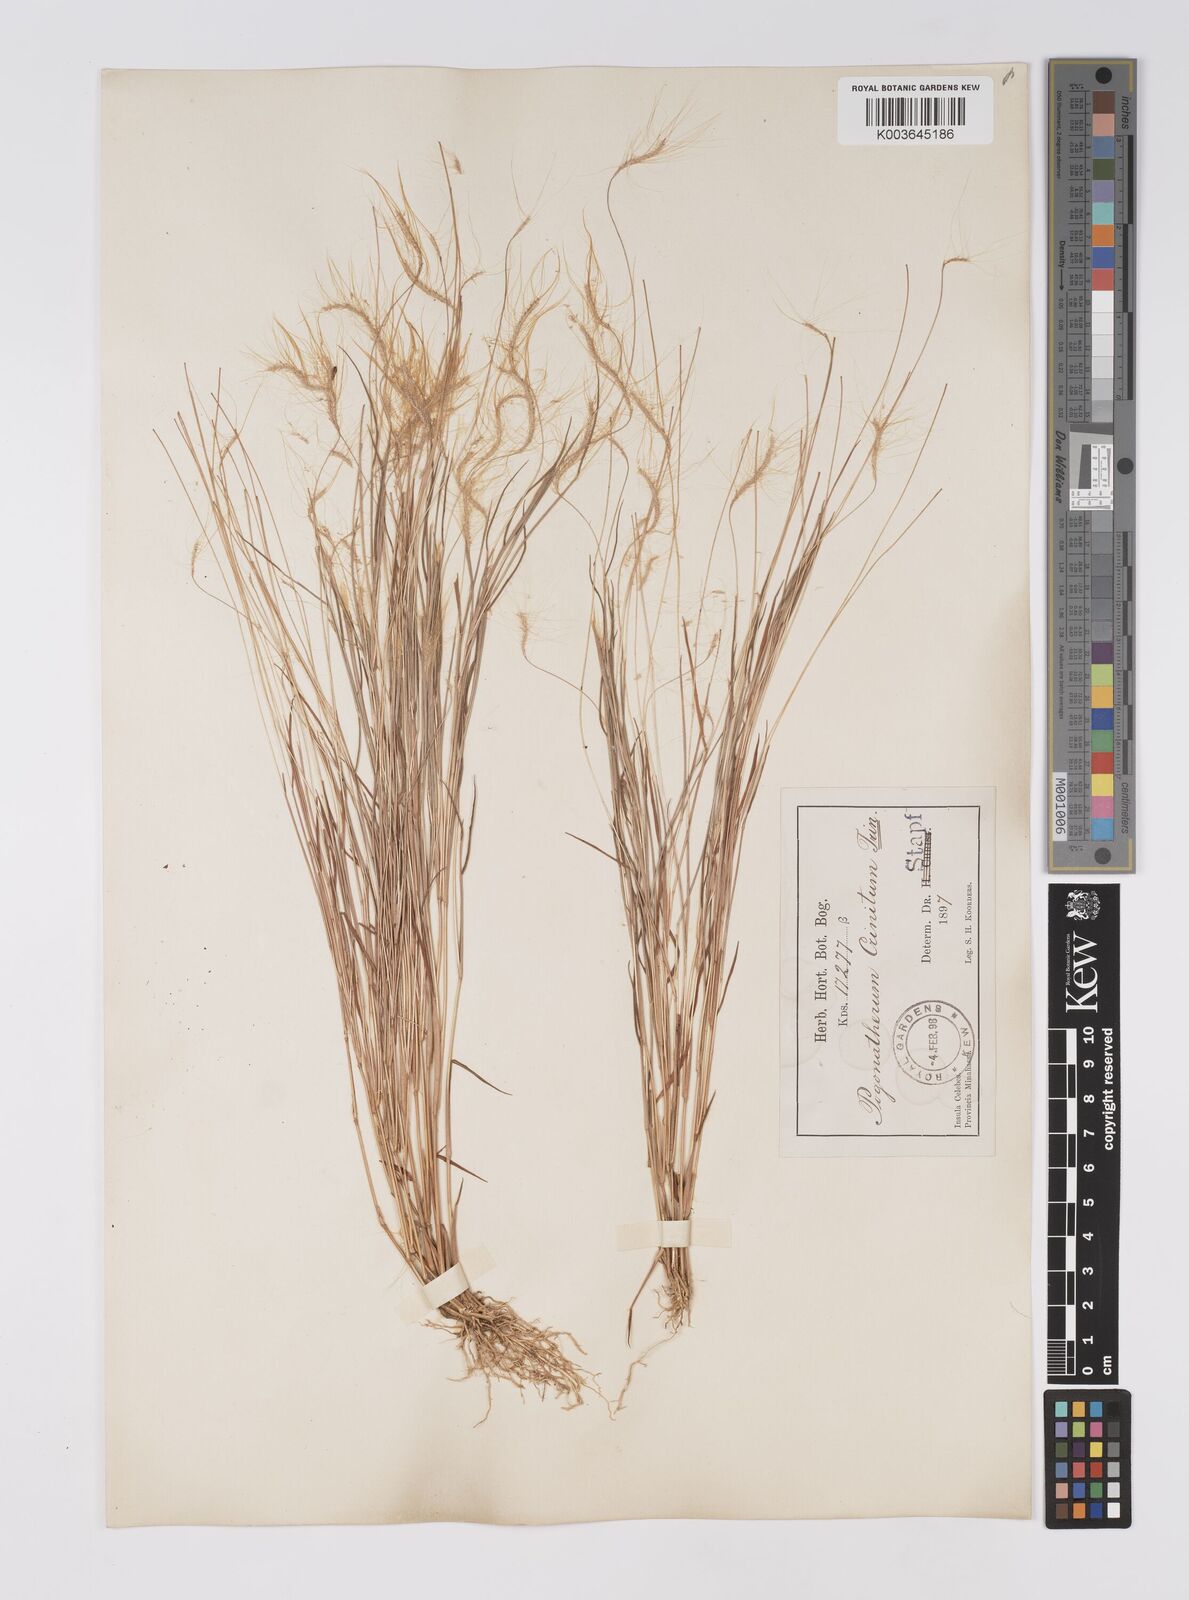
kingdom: Plantae
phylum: Tracheophyta
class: Liliopsida
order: Poales
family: Poaceae
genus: Pogonatherum
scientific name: Pogonatherum crinitum
